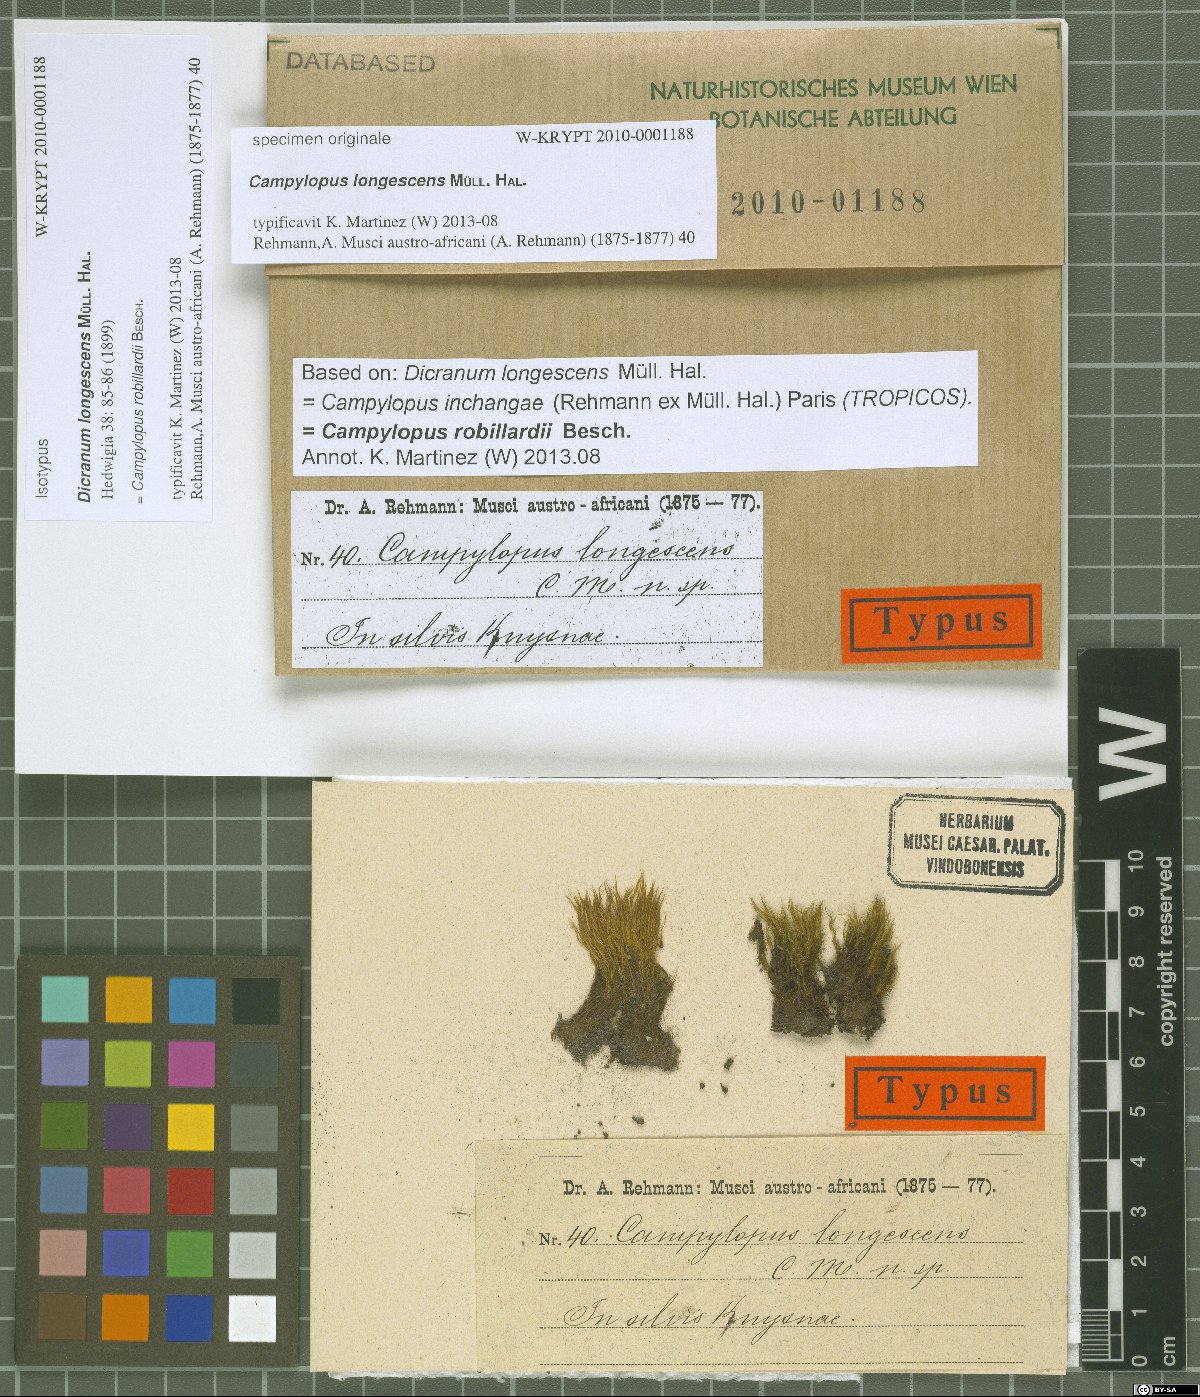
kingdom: Plantae
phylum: Bryophyta
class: Bryopsida
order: Dicranales
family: Leucobryaceae
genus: Campylopus
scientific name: Campylopus robillardii
